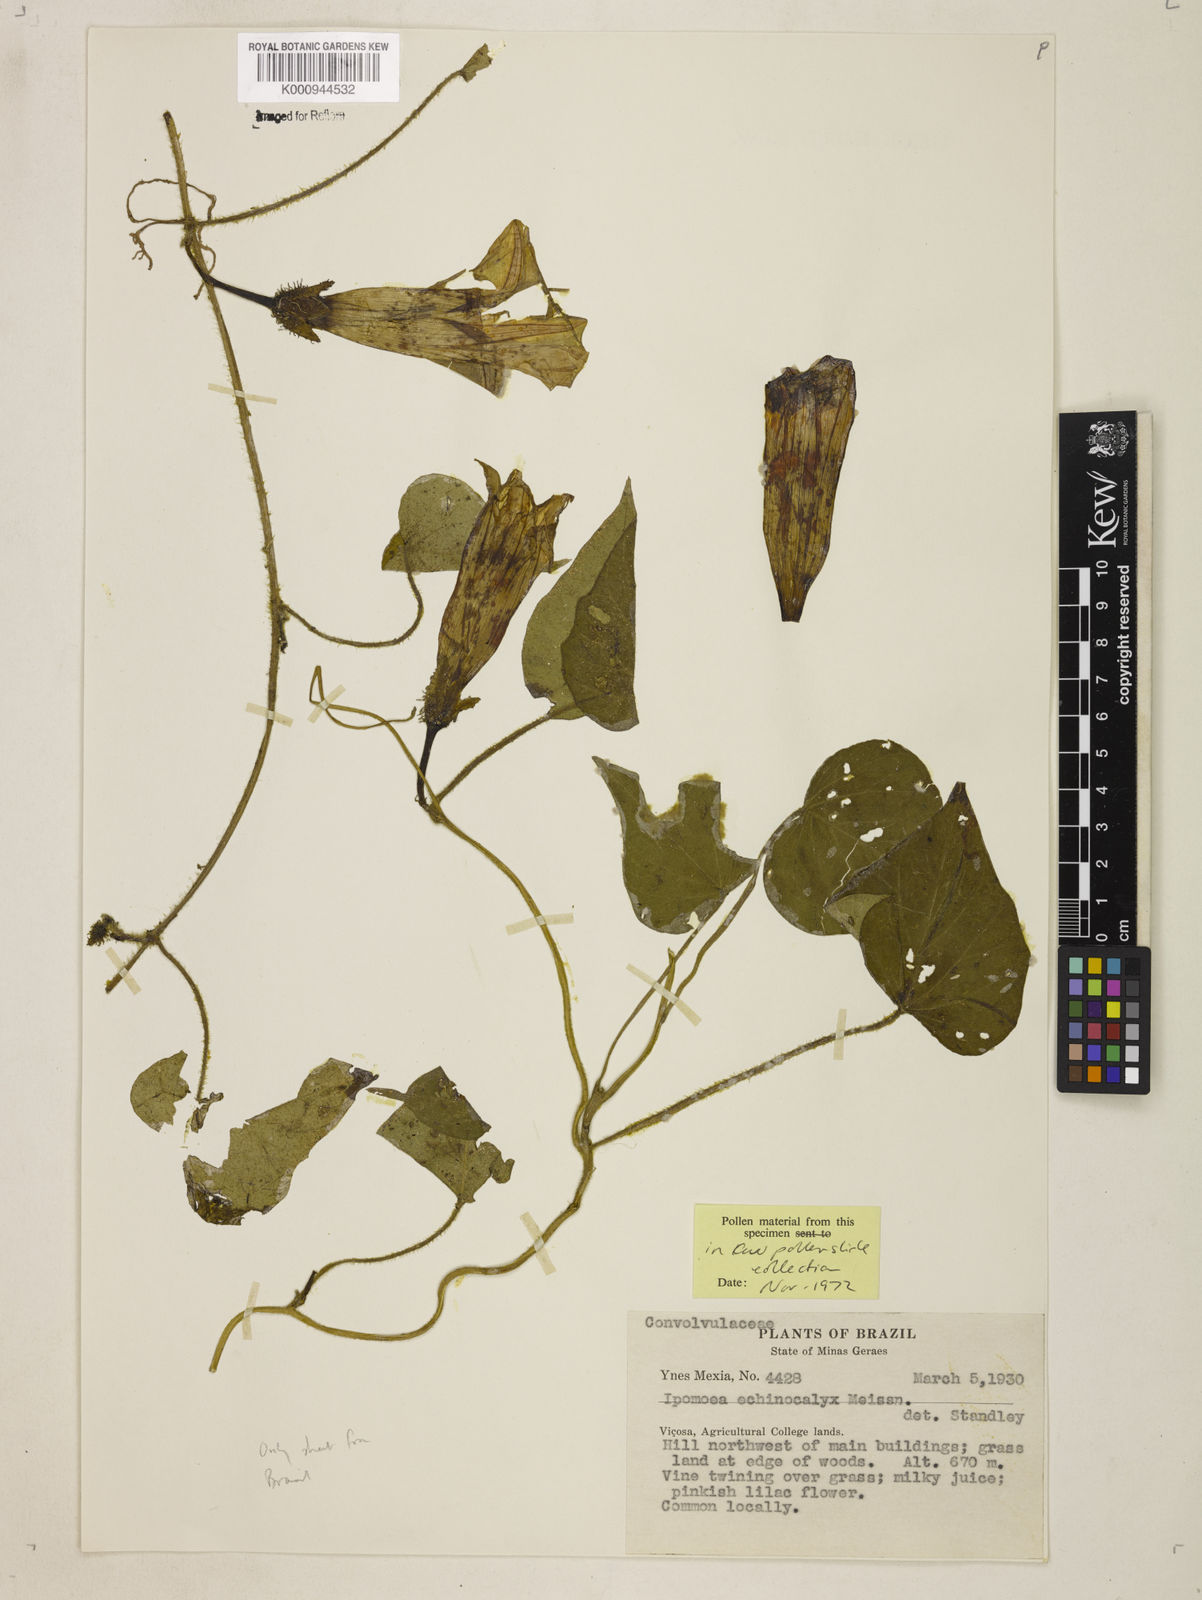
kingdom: Plantae
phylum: Tracheophyta
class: Magnoliopsida
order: Solanales
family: Convolvulaceae
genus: Ipomoea
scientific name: Ipomoea echinocalyx
